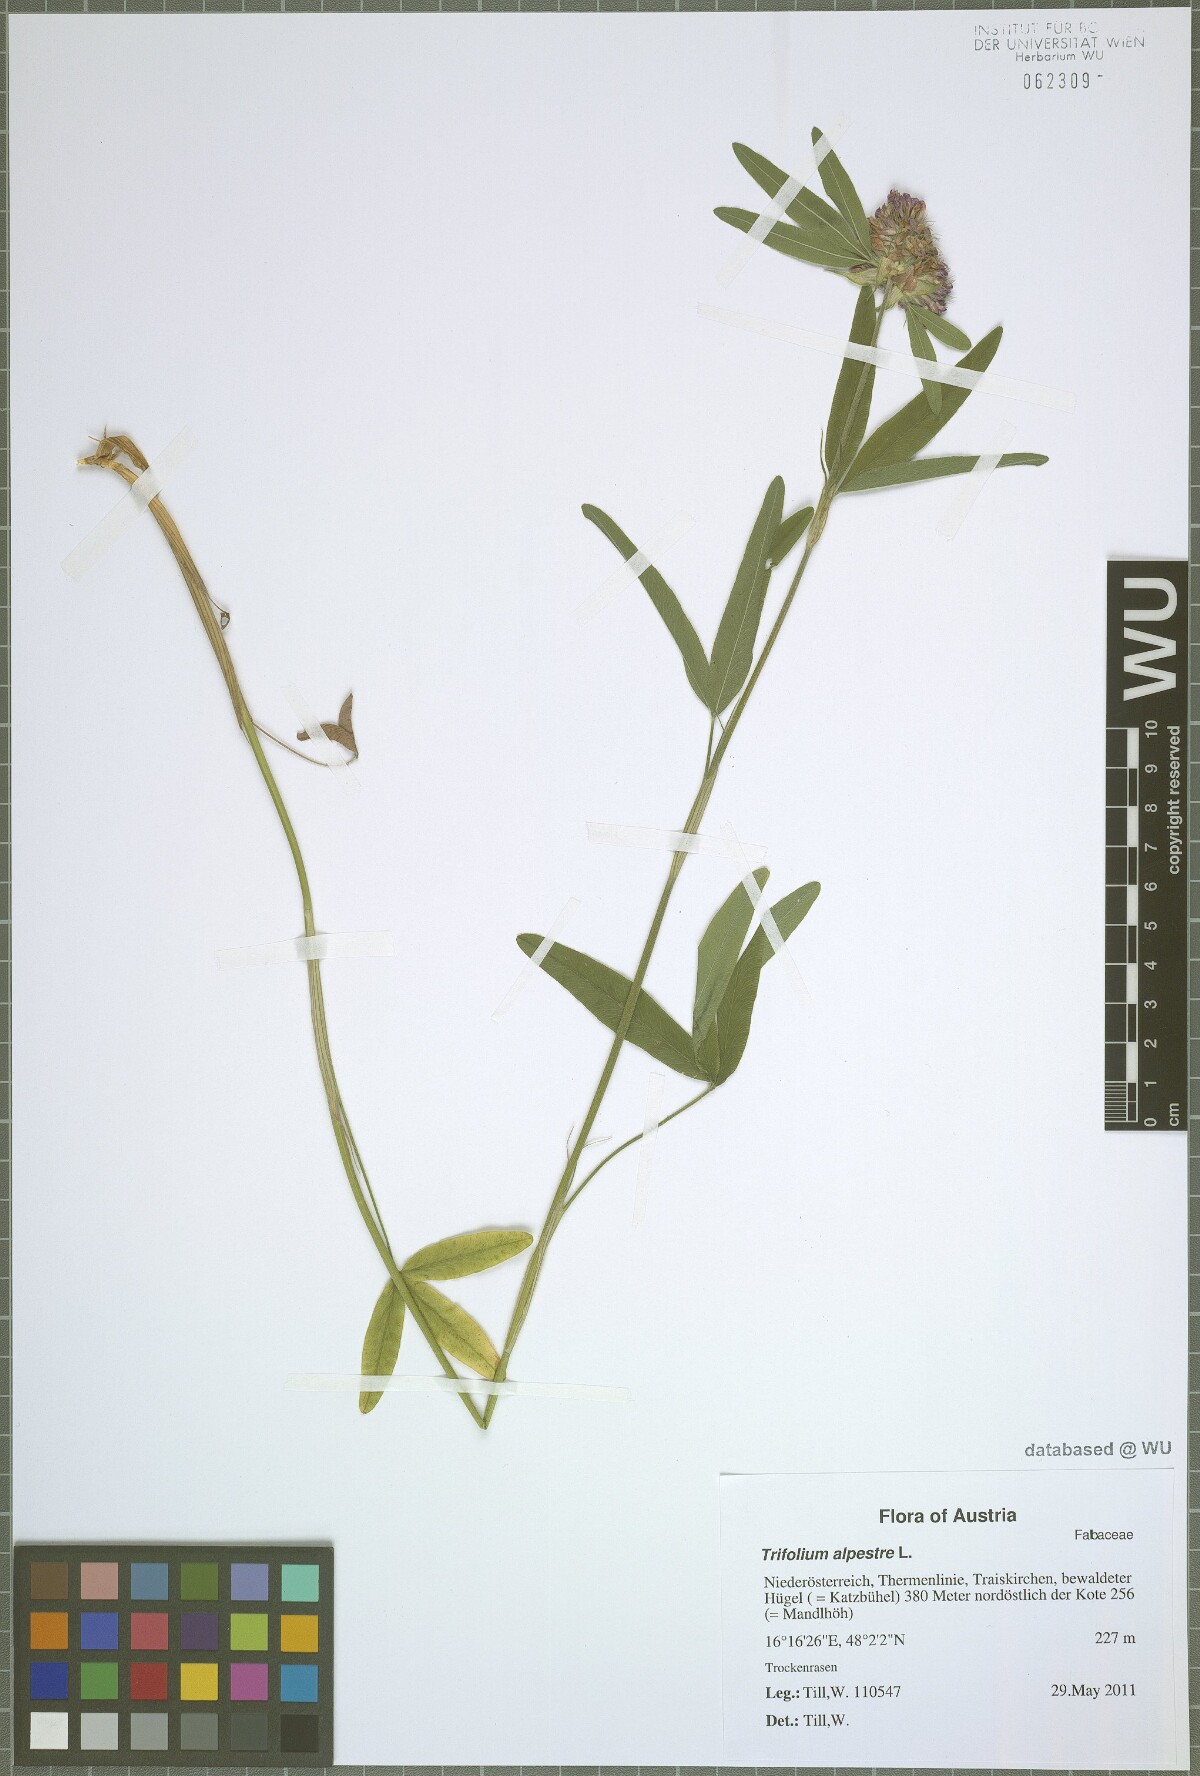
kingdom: Plantae
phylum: Tracheophyta
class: Magnoliopsida
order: Fabales
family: Fabaceae
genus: Trifolium
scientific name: Trifolium alpestre
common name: Owl-head clover
